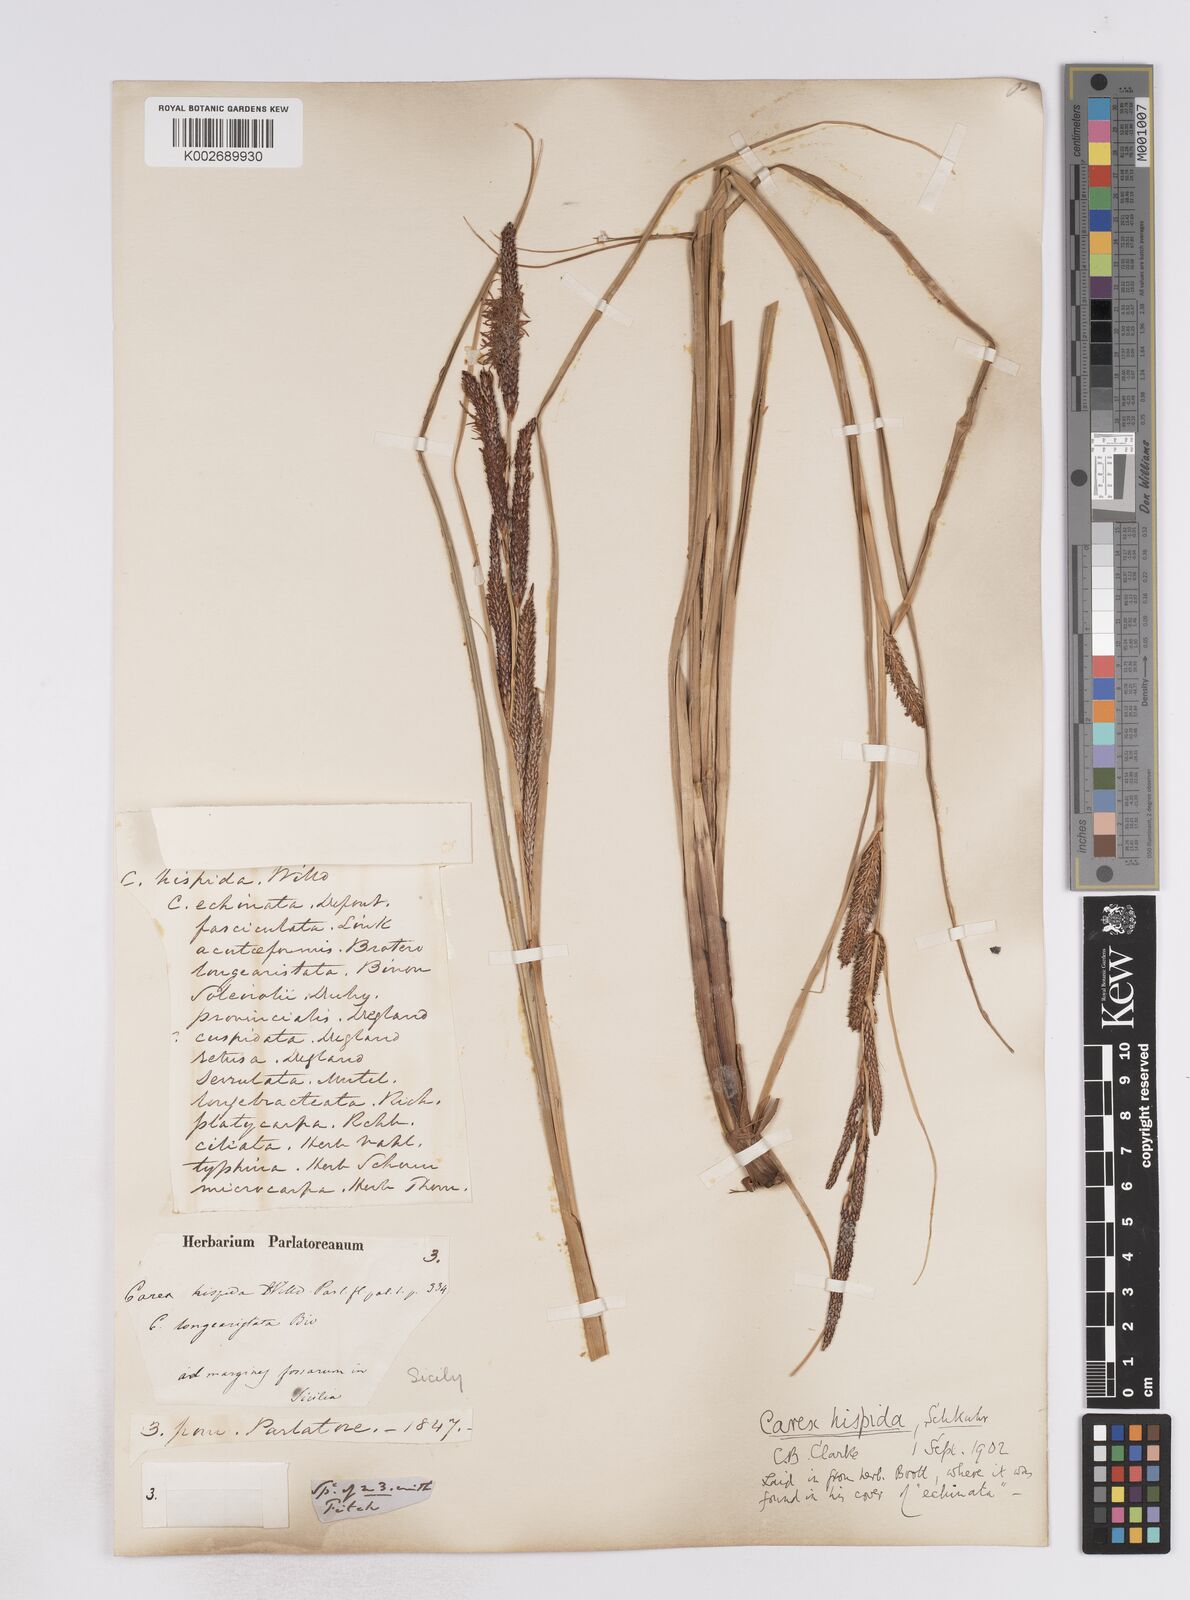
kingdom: Plantae
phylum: Tracheophyta
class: Liliopsida
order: Poales
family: Cyperaceae
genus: Carex
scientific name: Carex hispida
